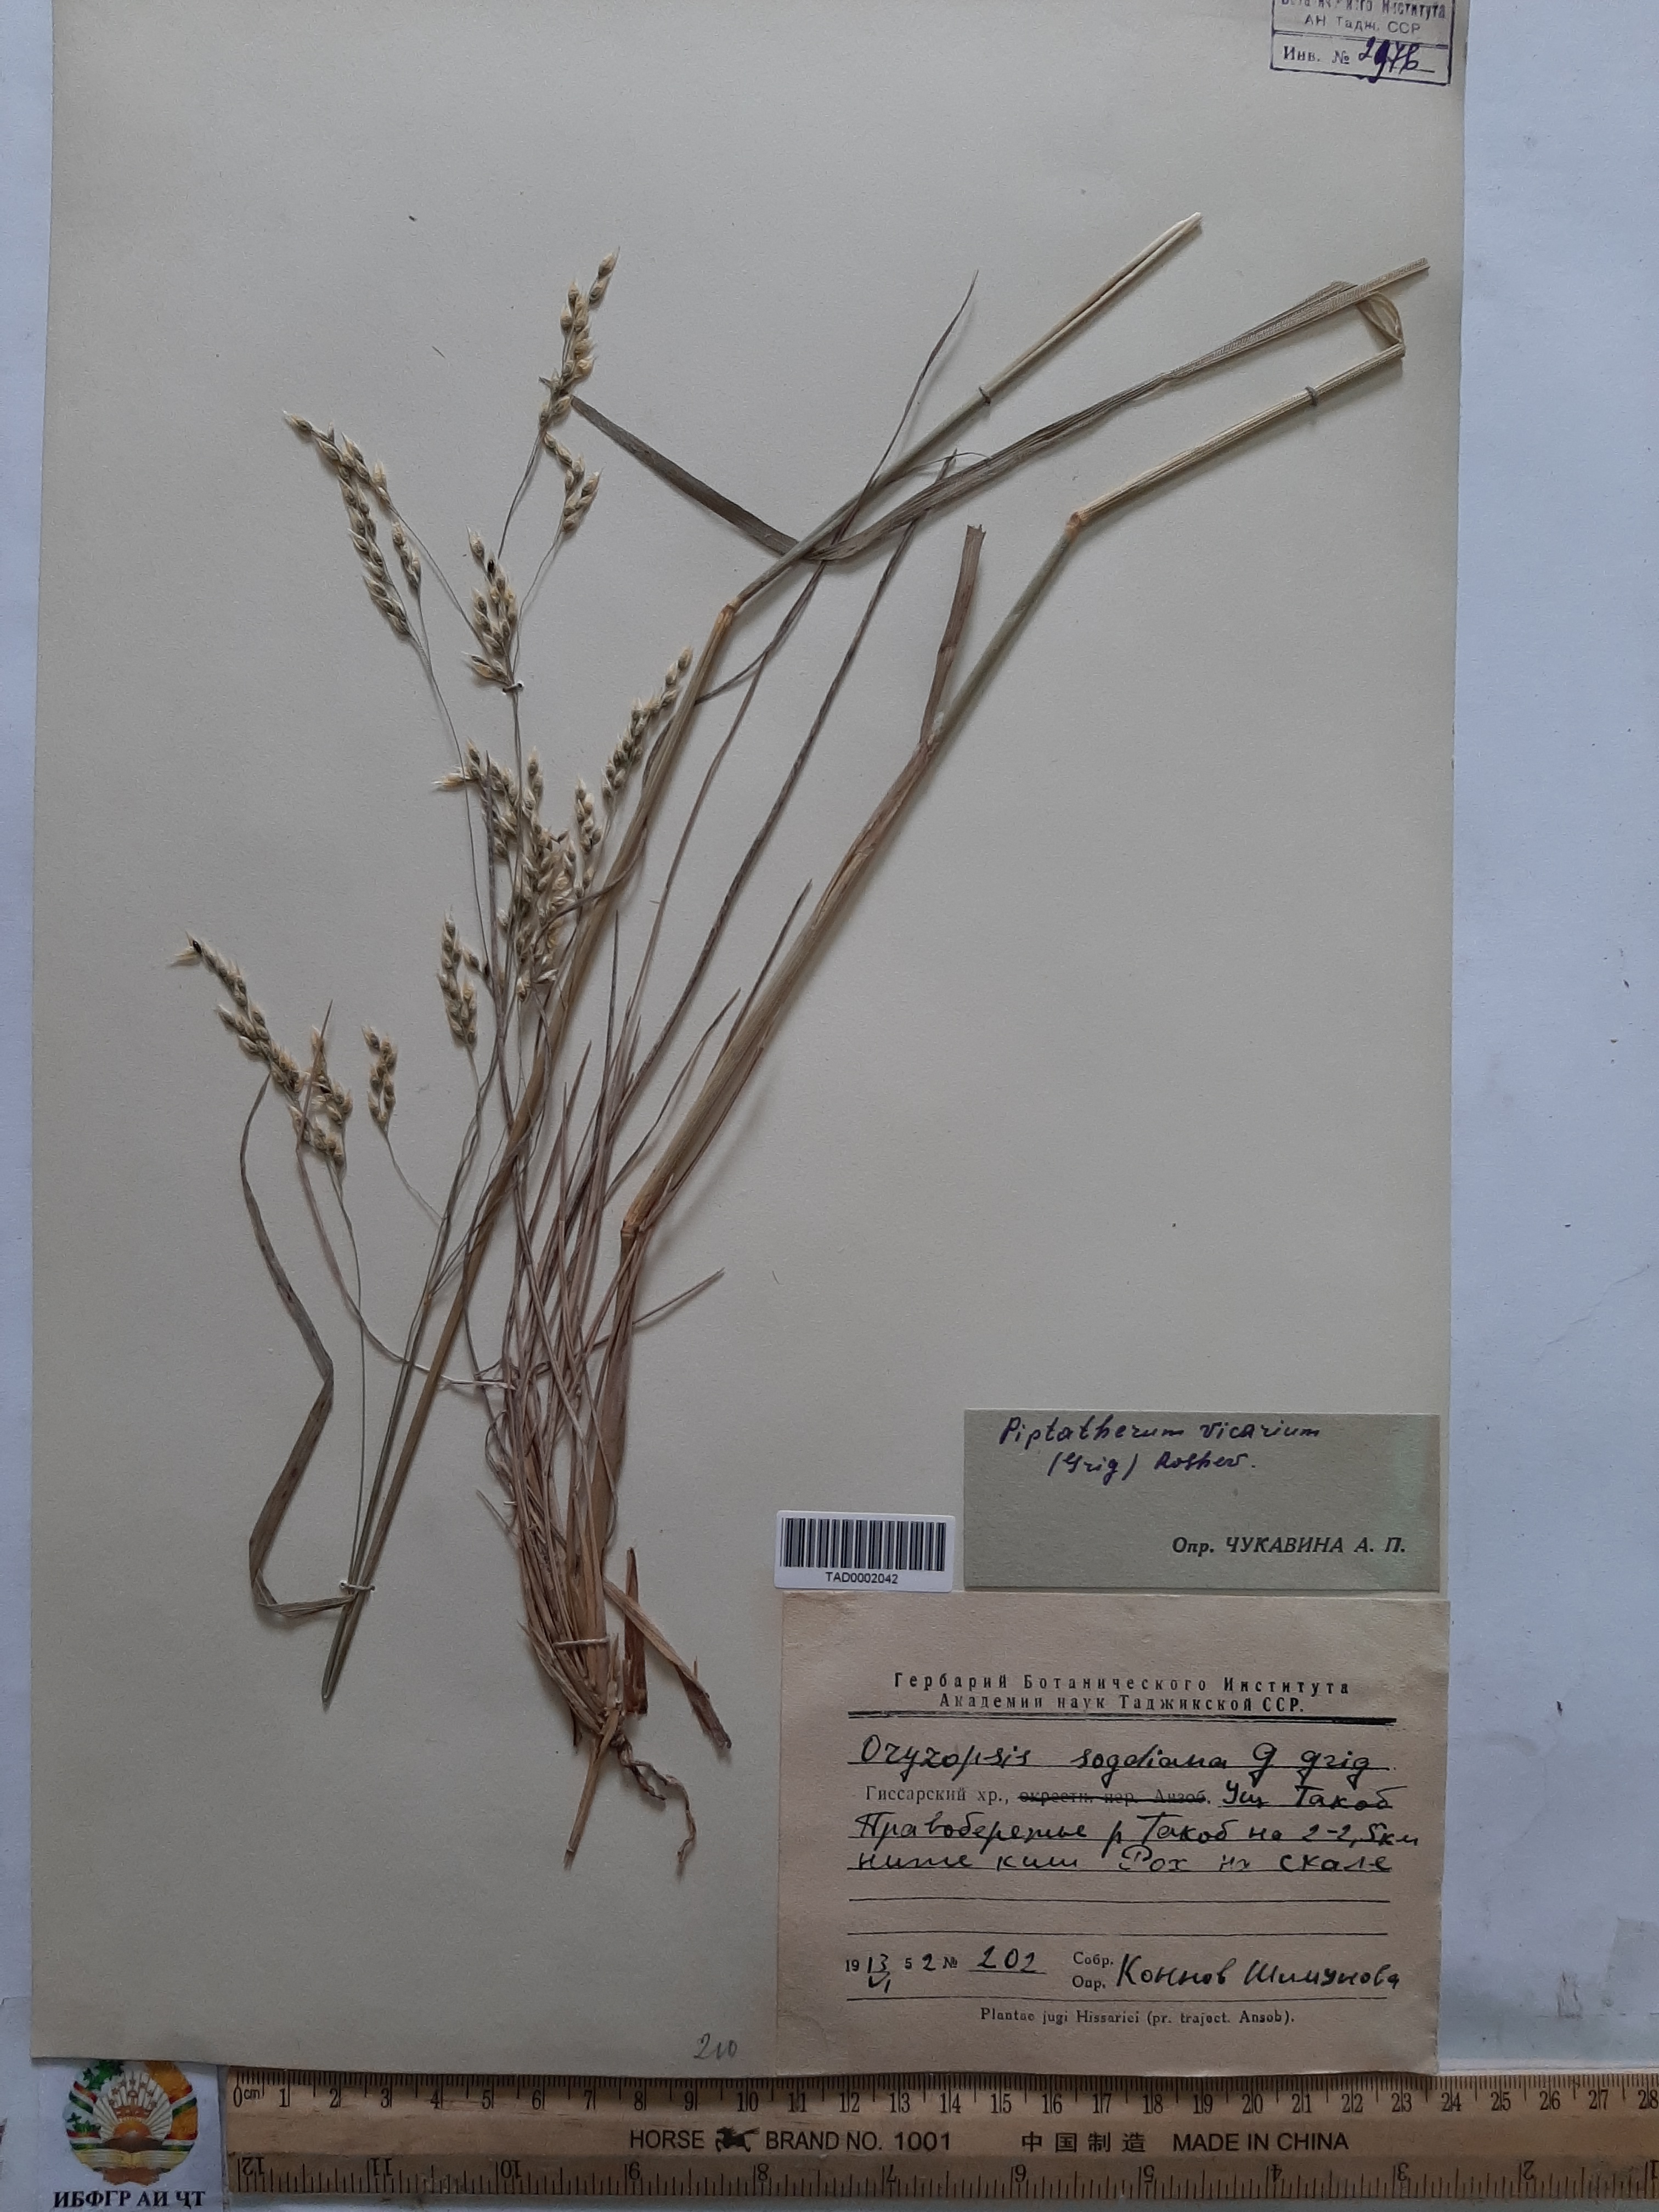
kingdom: Plantae
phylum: Tracheophyta
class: Liliopsida
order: Poales
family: Poaceae
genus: Piptatherum
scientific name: Piptatherum microcarpum
